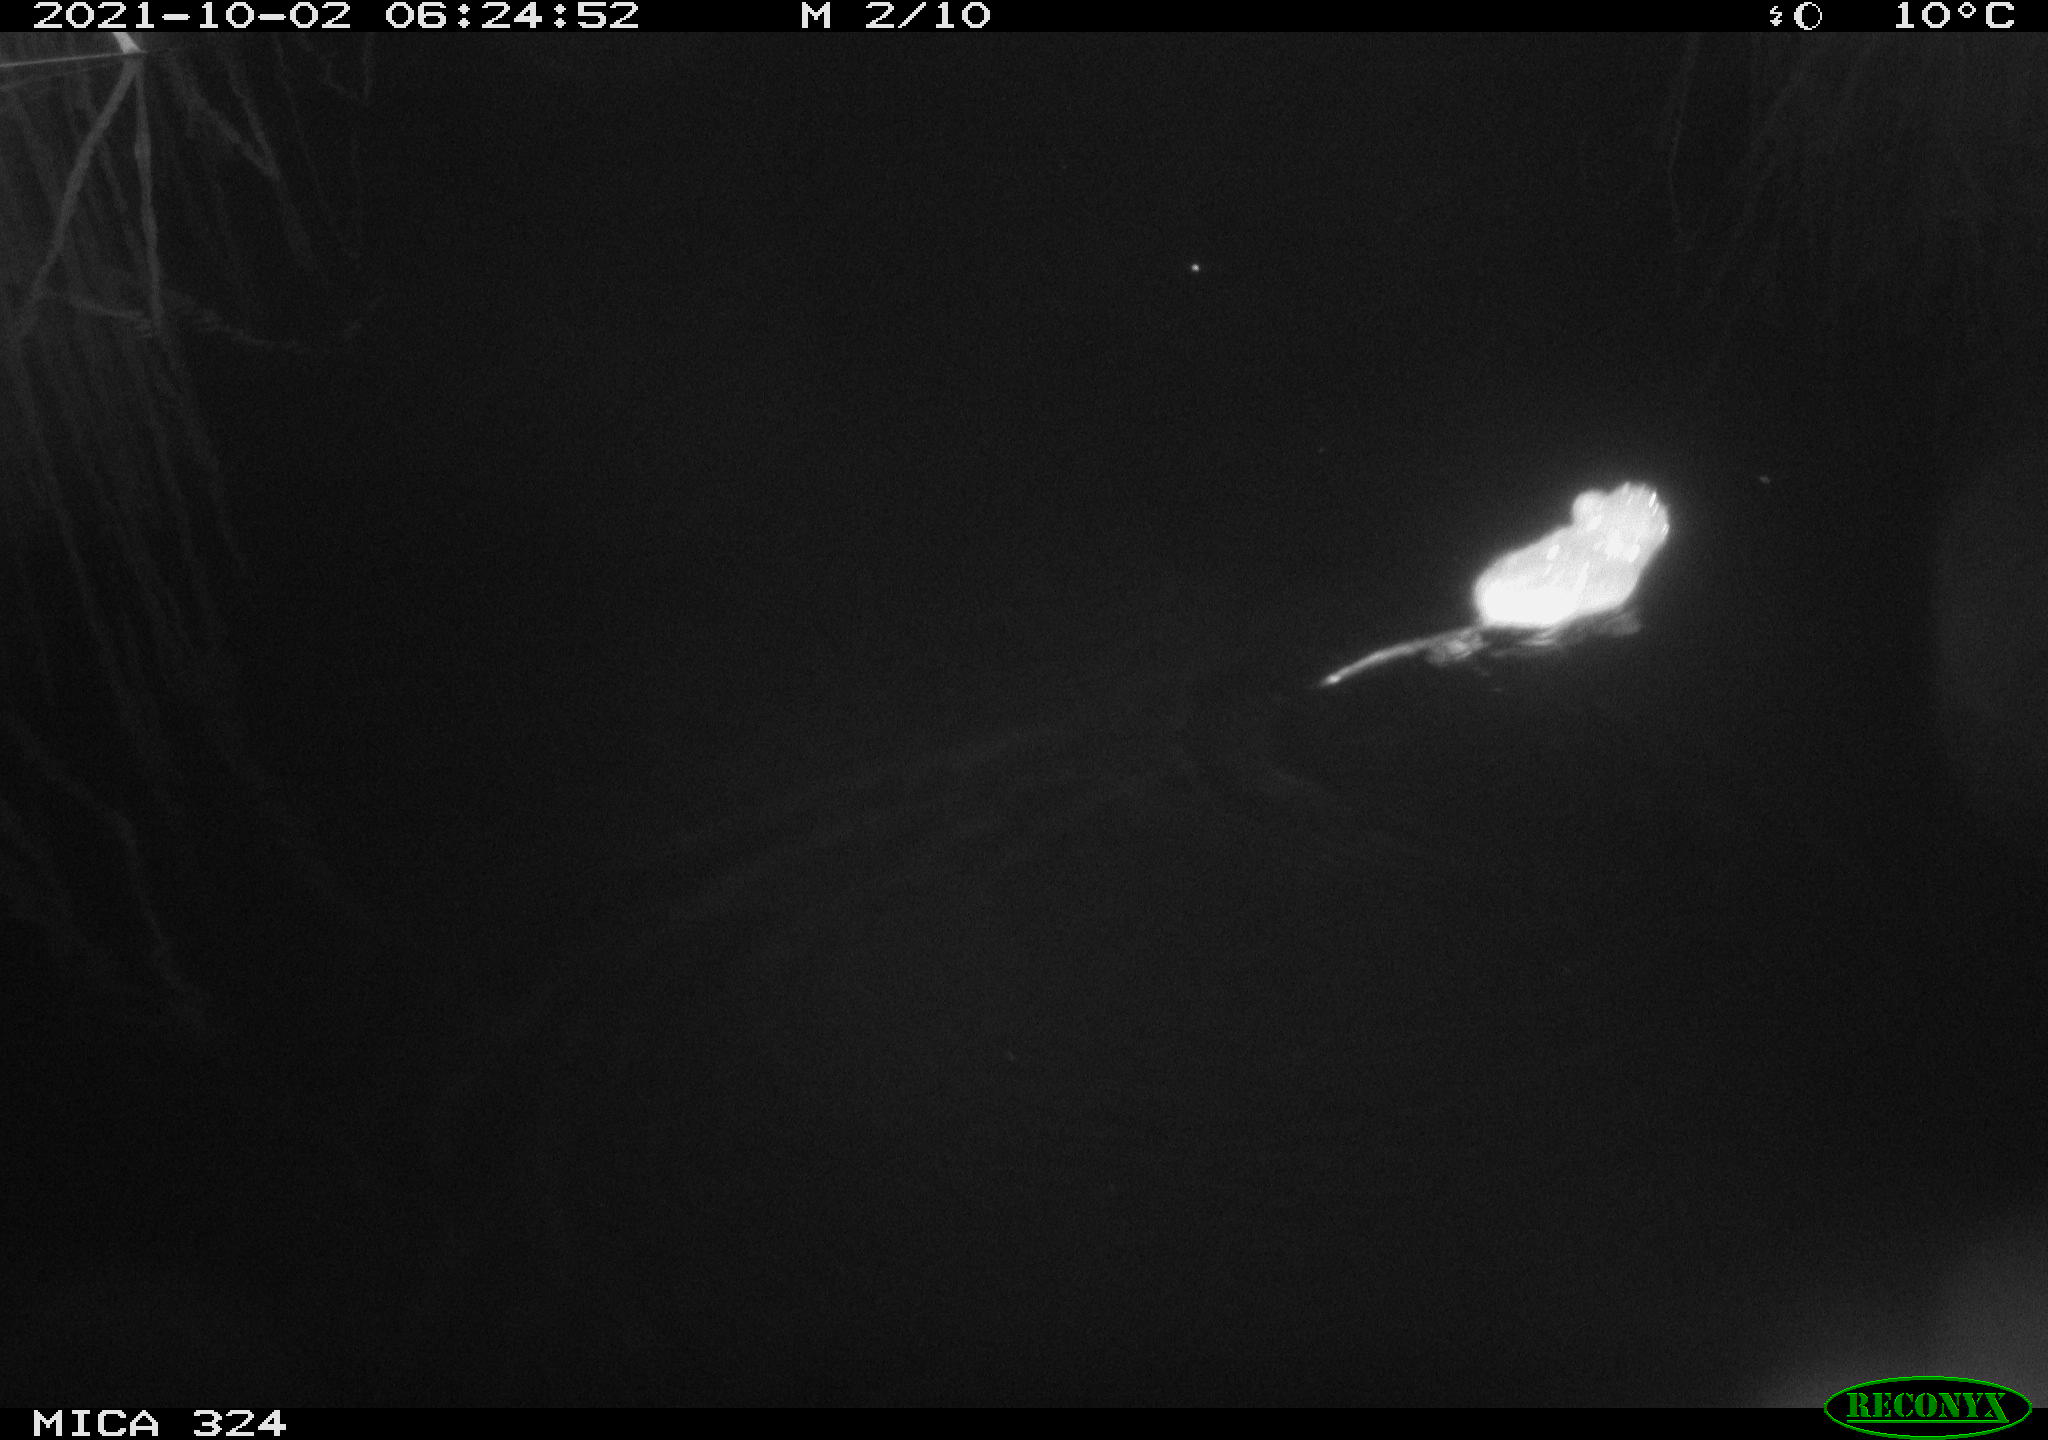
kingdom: Animalia
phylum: Chordata
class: Mammalia
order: Rodentia
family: Cricetidae
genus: Ondatra
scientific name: Ondatra zibethicus
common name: Muskrat
